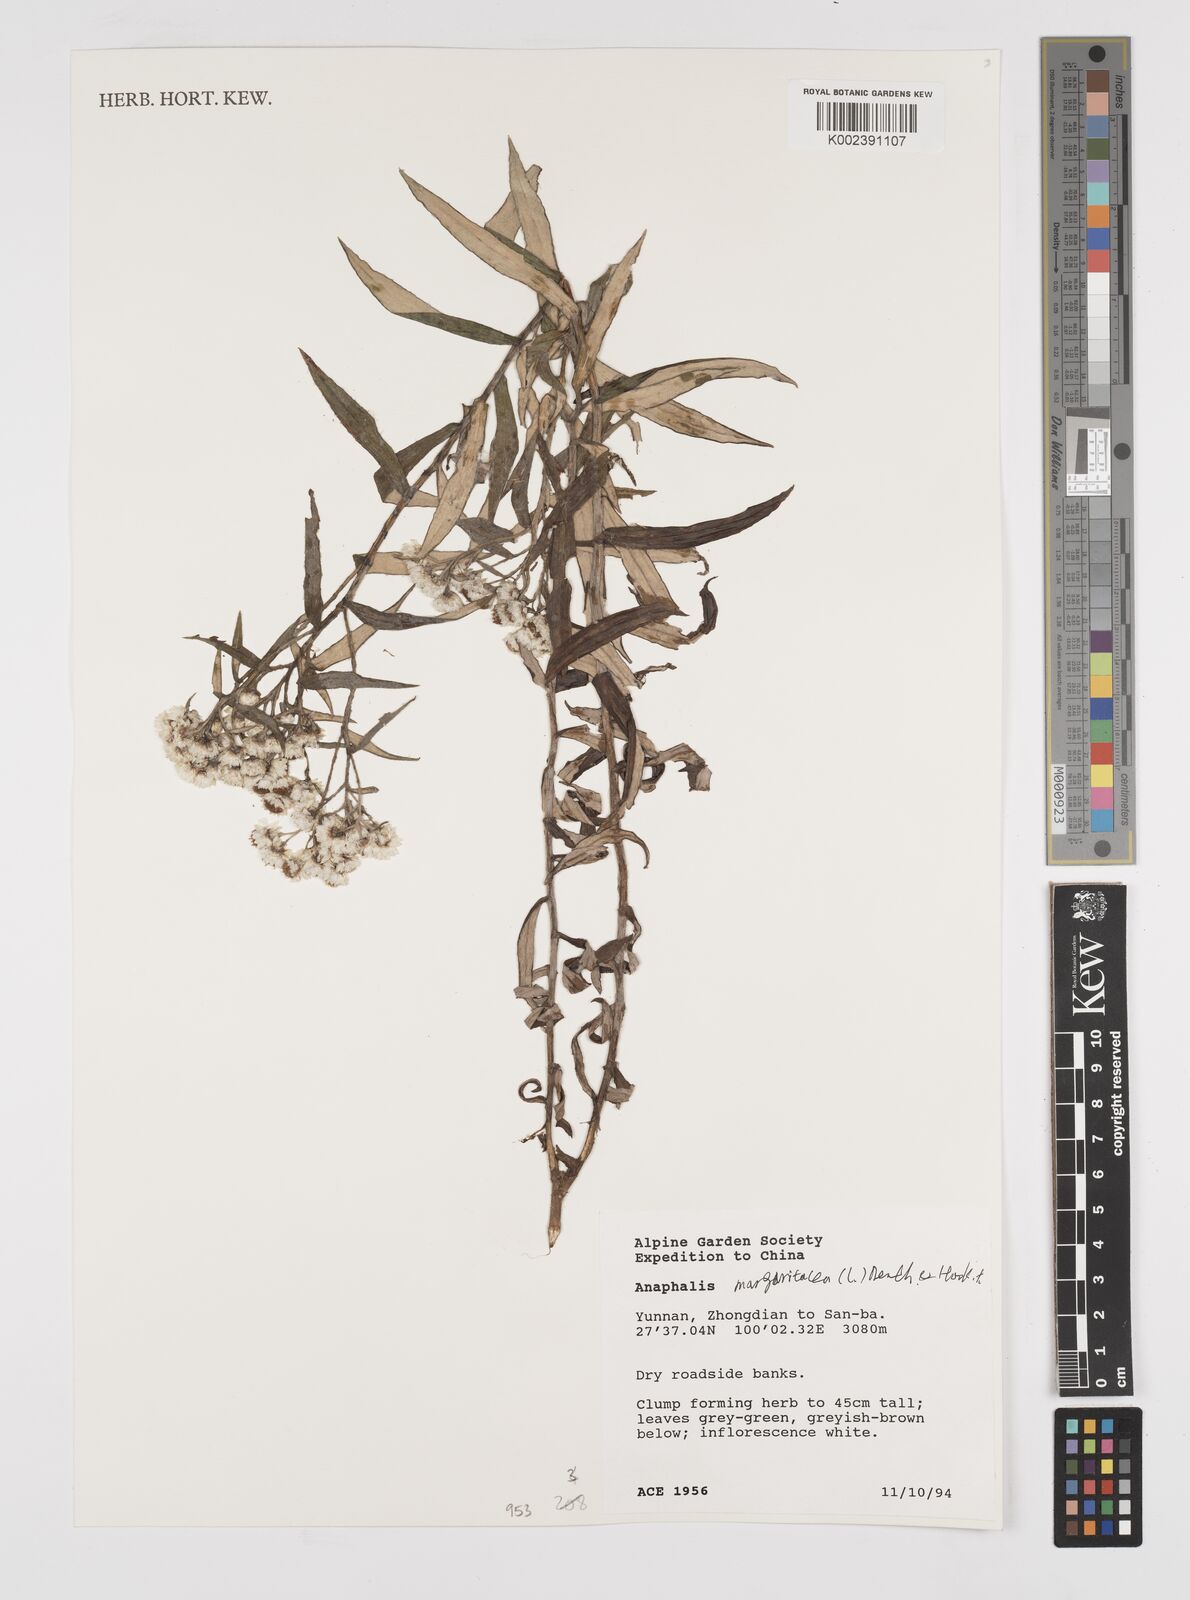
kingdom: Plantae
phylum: Tracheophyta
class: Magnoliopsida
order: Asterales
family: Asteraceae
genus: Anaphalis
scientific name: Anaphalis margaritacea
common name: Pearly everlasting
